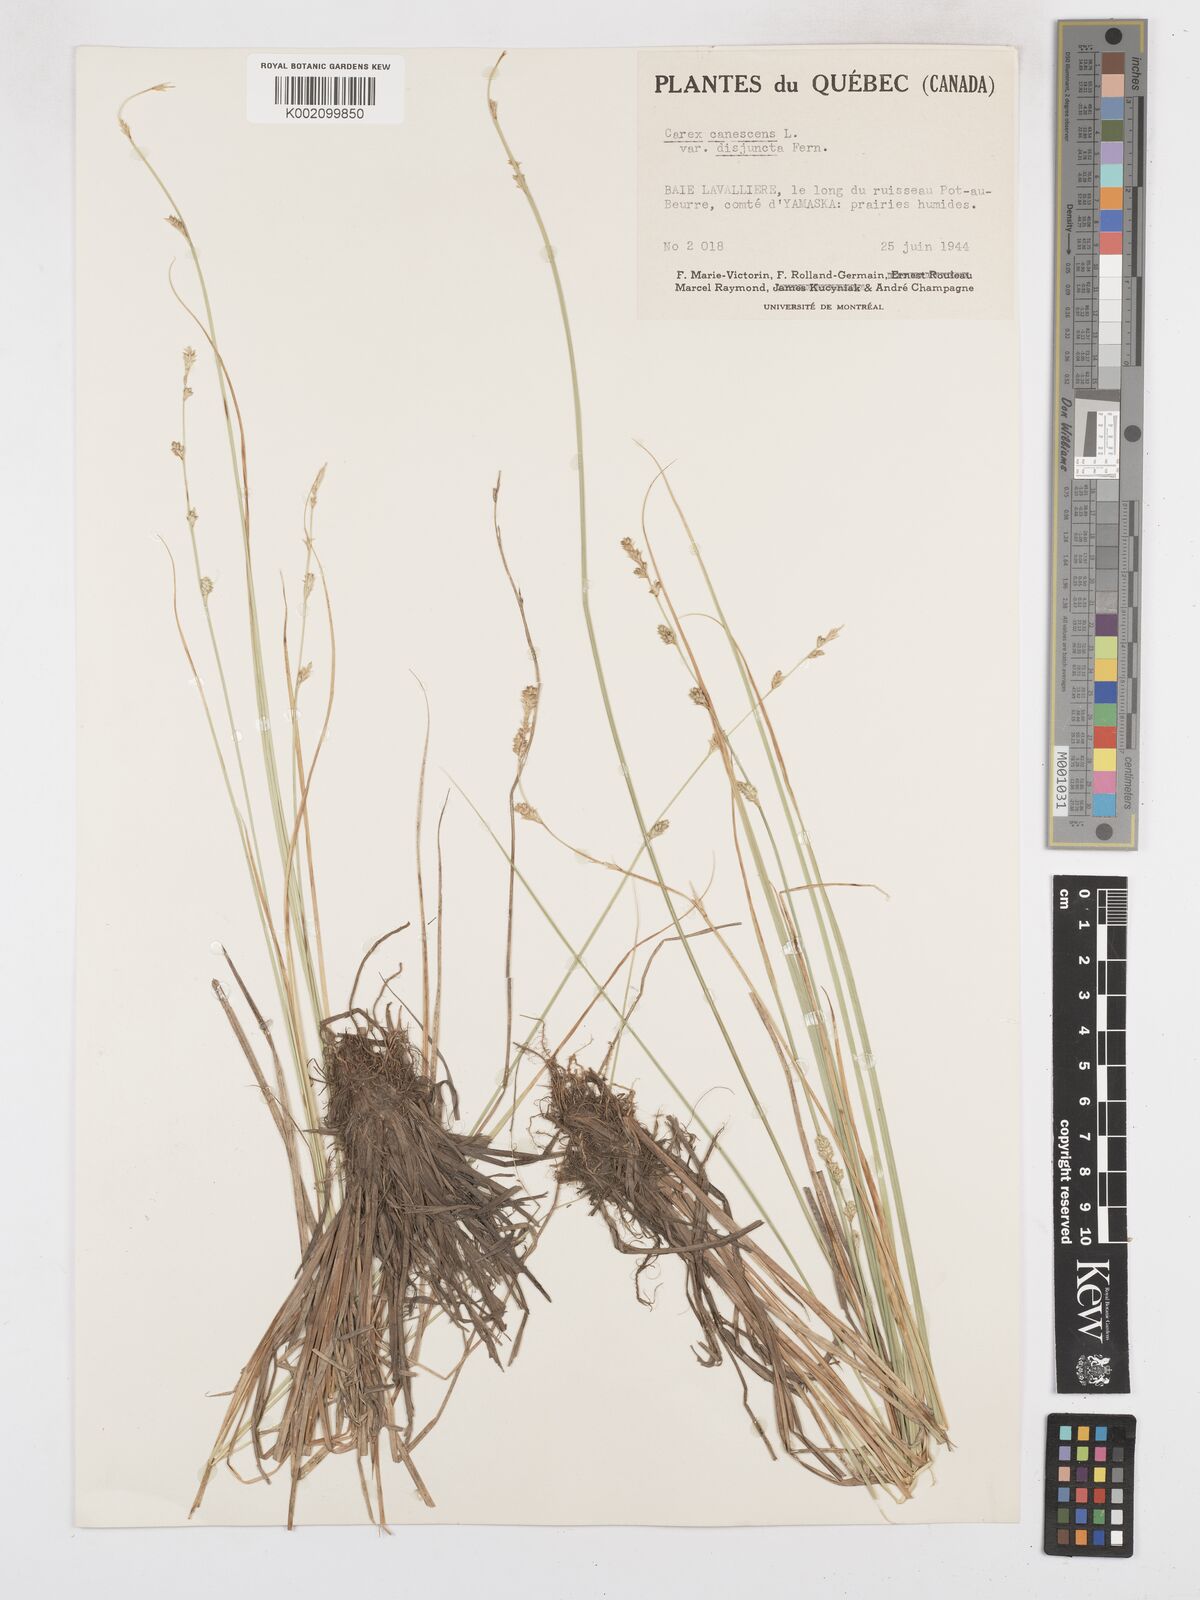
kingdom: Plantae
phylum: Tracheophyta
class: Liliopsida
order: Poales
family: Cyperaceae
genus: Carex
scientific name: Carex curta
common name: White sedge
